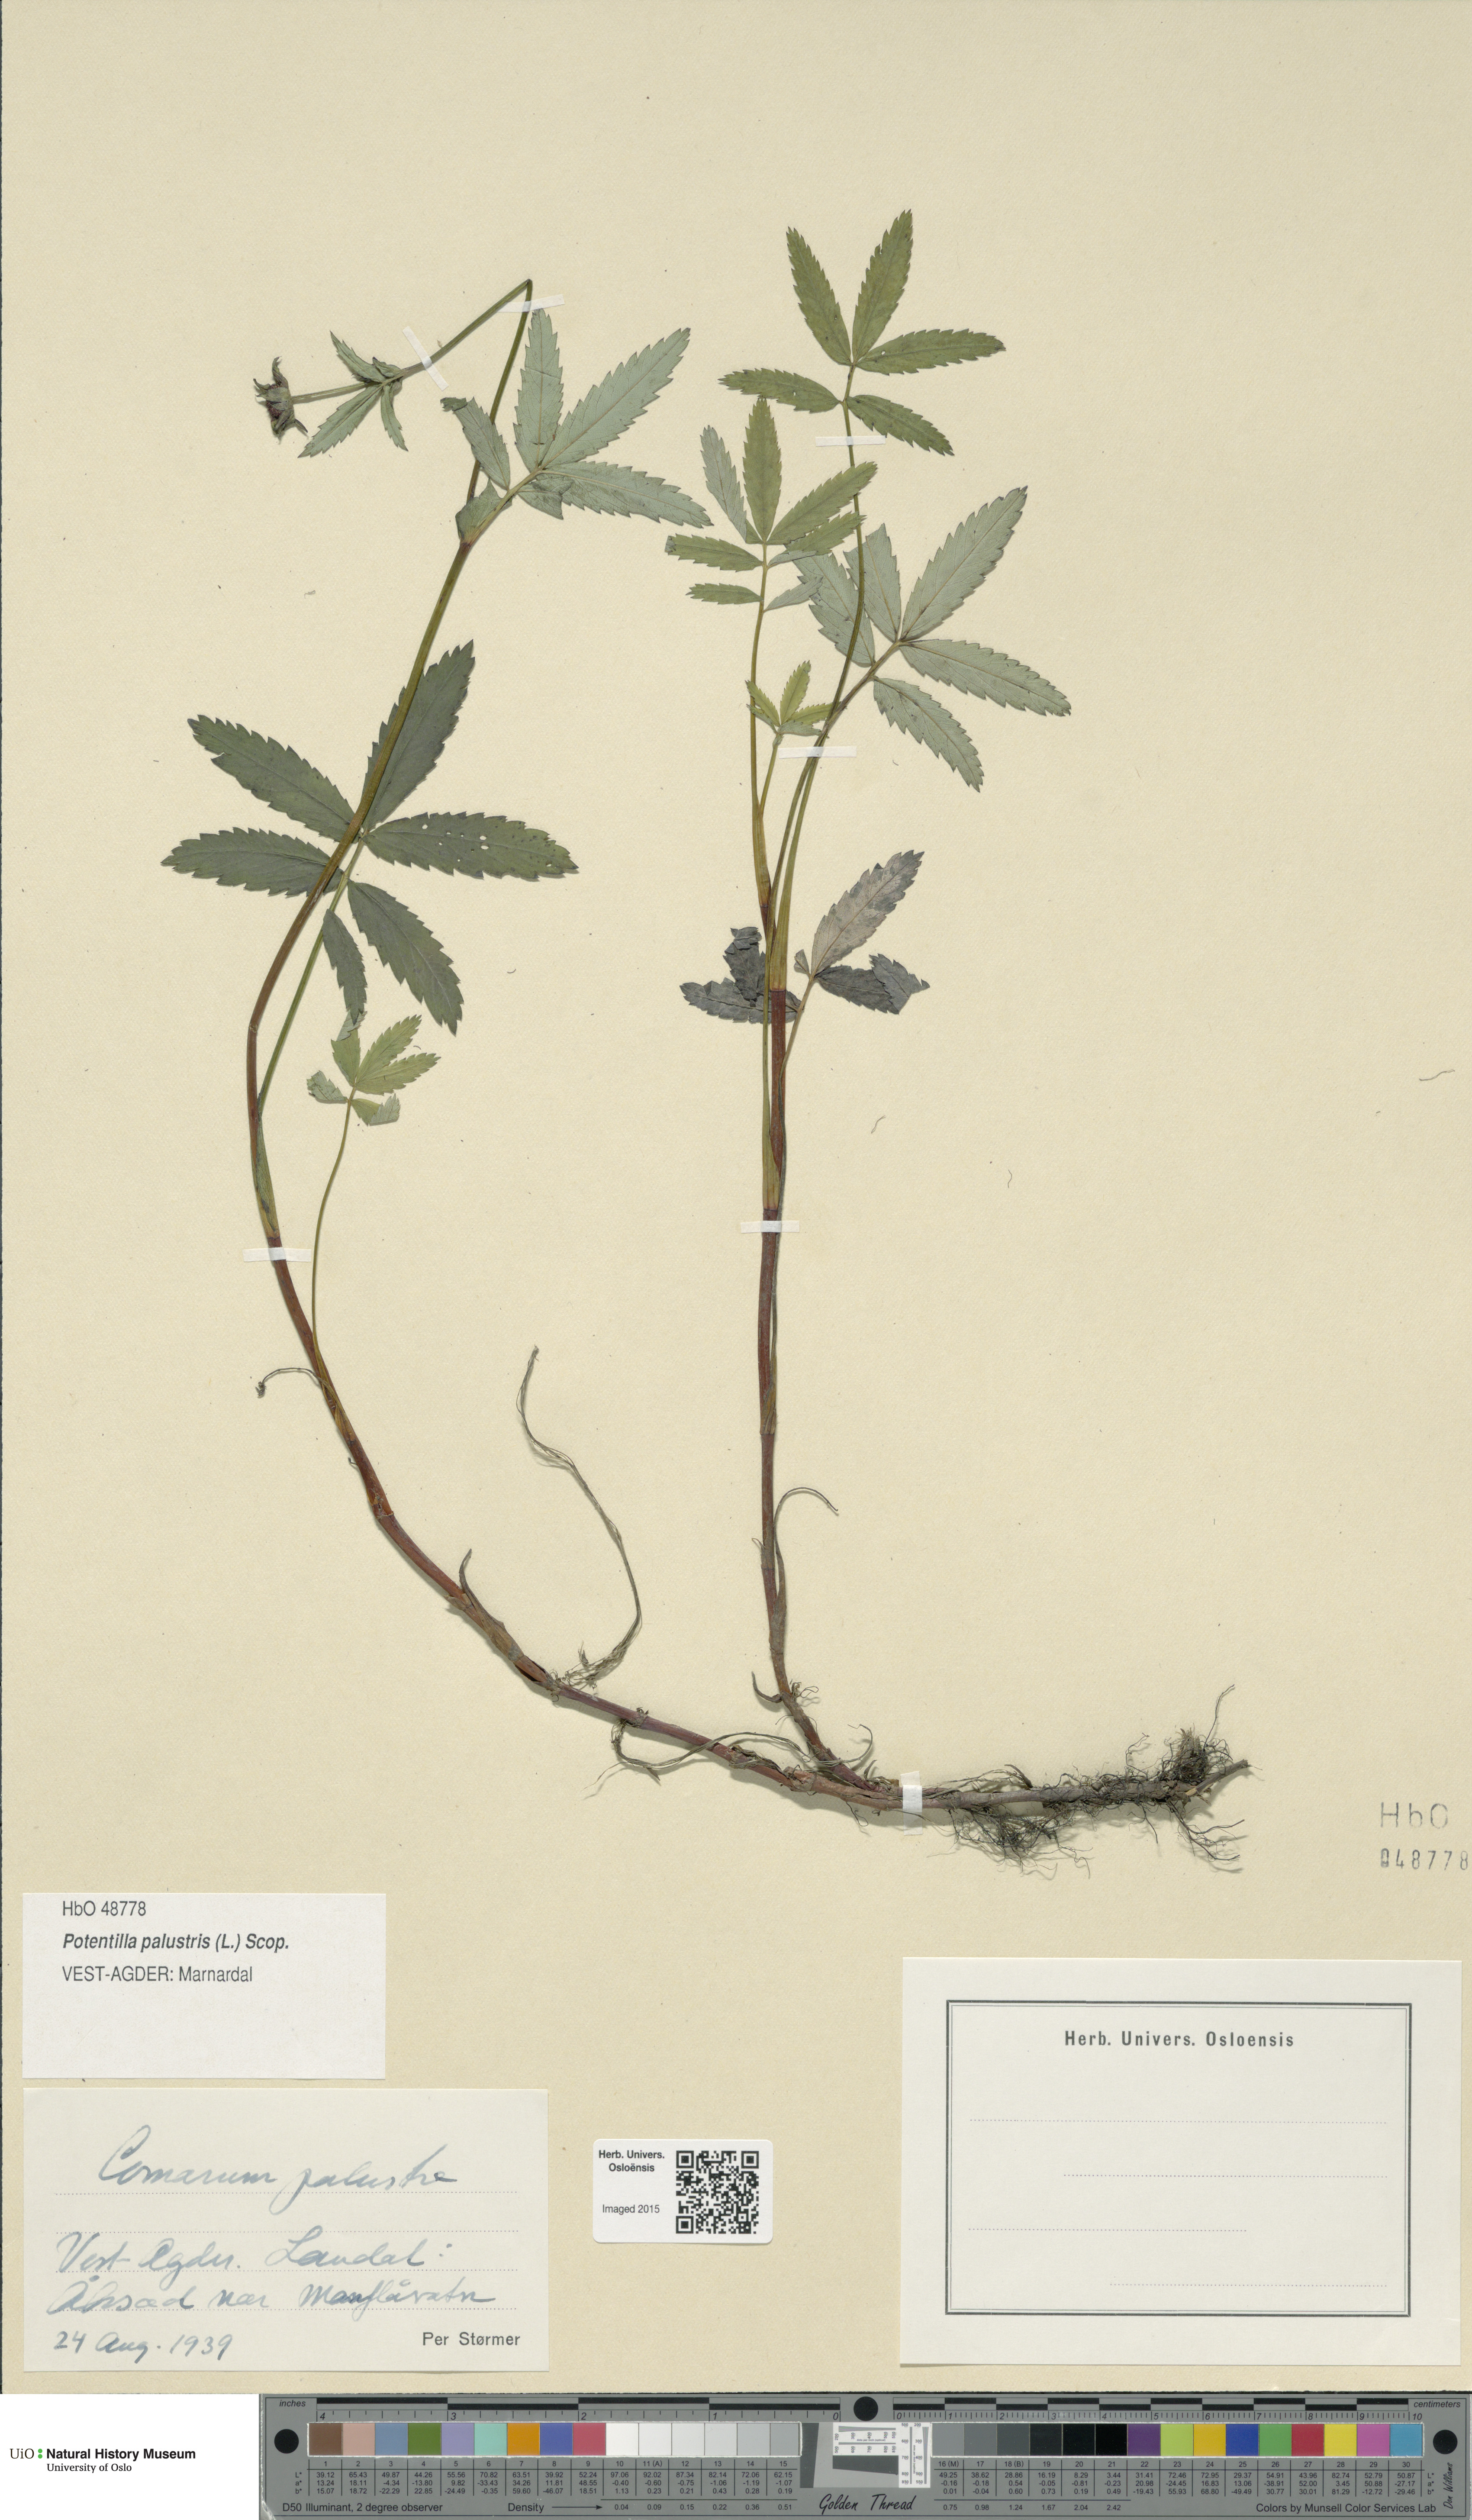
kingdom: Plantae
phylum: Tracheophyta
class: Magnoliopsida
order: Rosales
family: Rosaceae
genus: Comarum
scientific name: Comarum palustre
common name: Marsh cinquefoil
